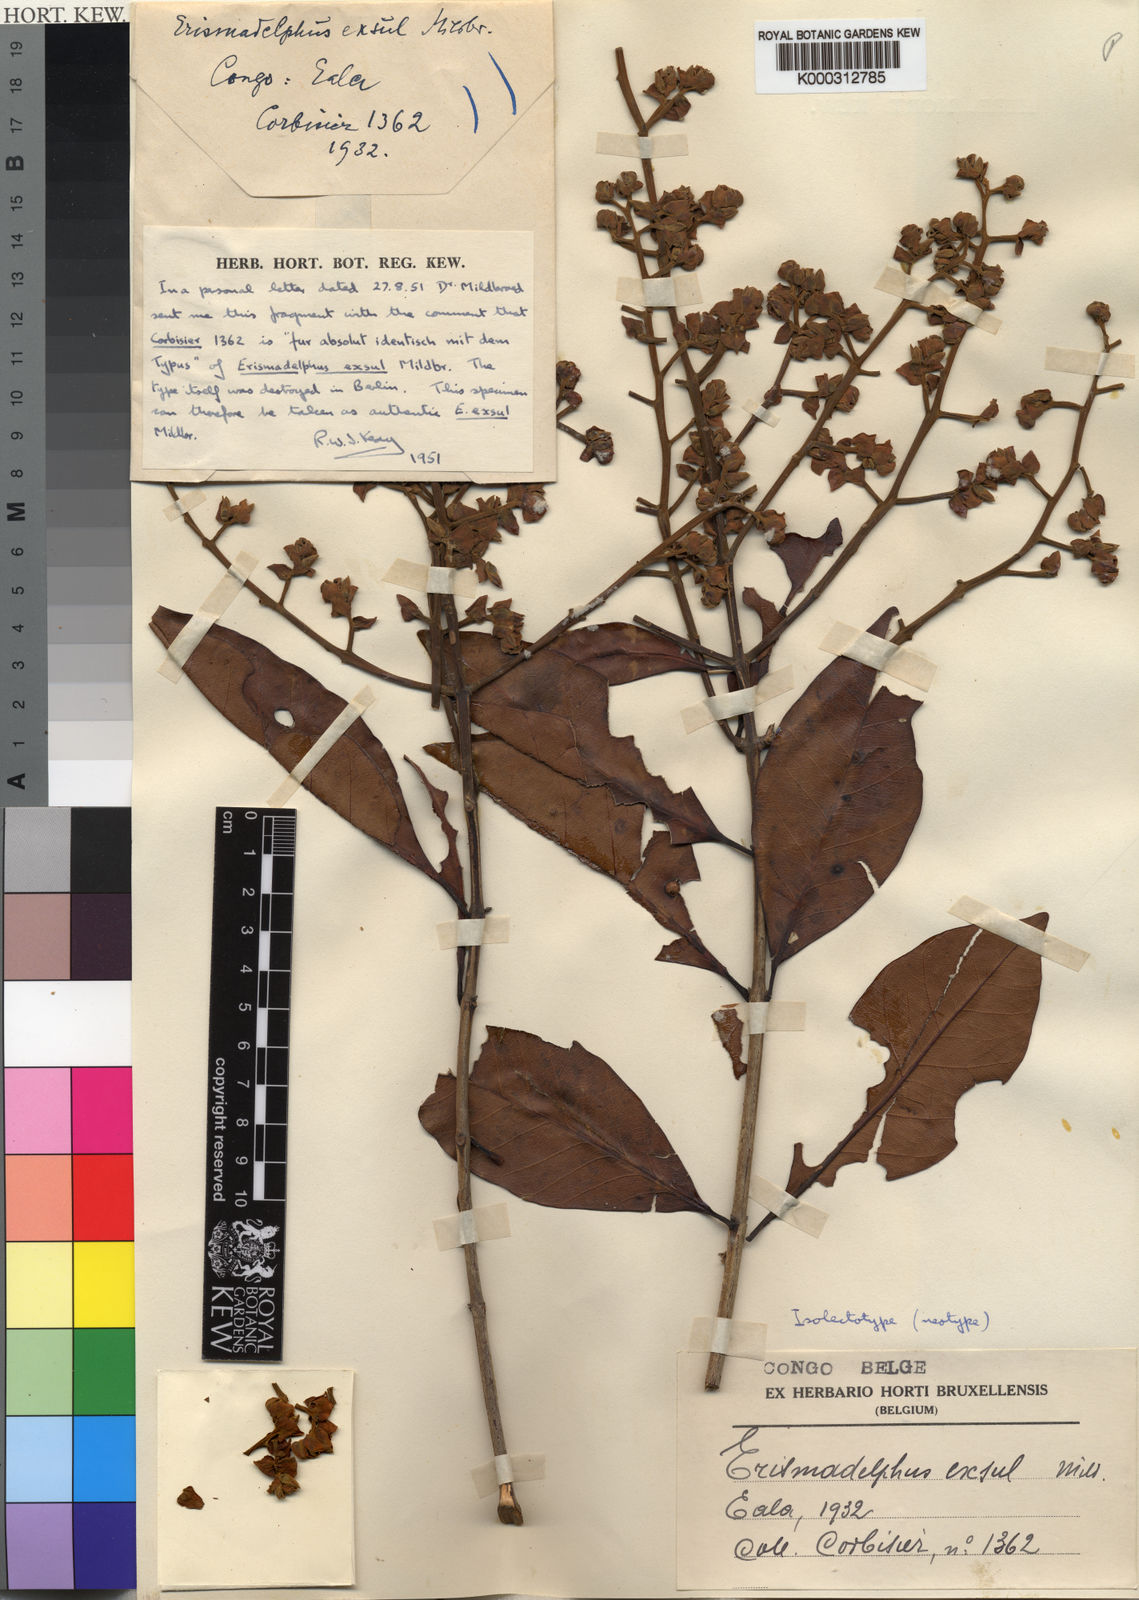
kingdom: Plantae
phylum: Tracheophyta
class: Magnoliopsida
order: Myrtales
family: Vochysiaceae
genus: Erismadelphus
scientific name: Erismadelphus exsul
